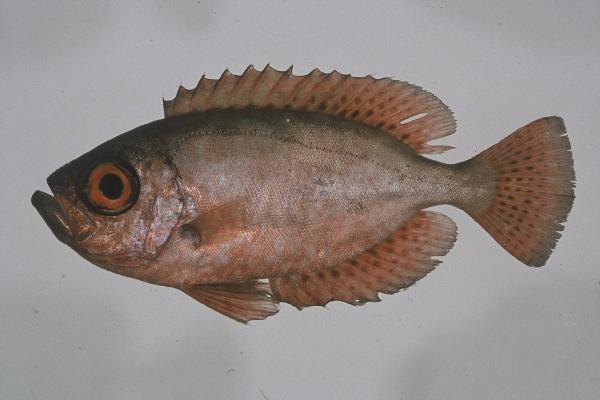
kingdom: Animalia
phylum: Chordata
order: Perciformes
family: Priacanthidae
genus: Heteropriacanthus
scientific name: Heteropriacanthus cruentatus
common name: Glasseye
